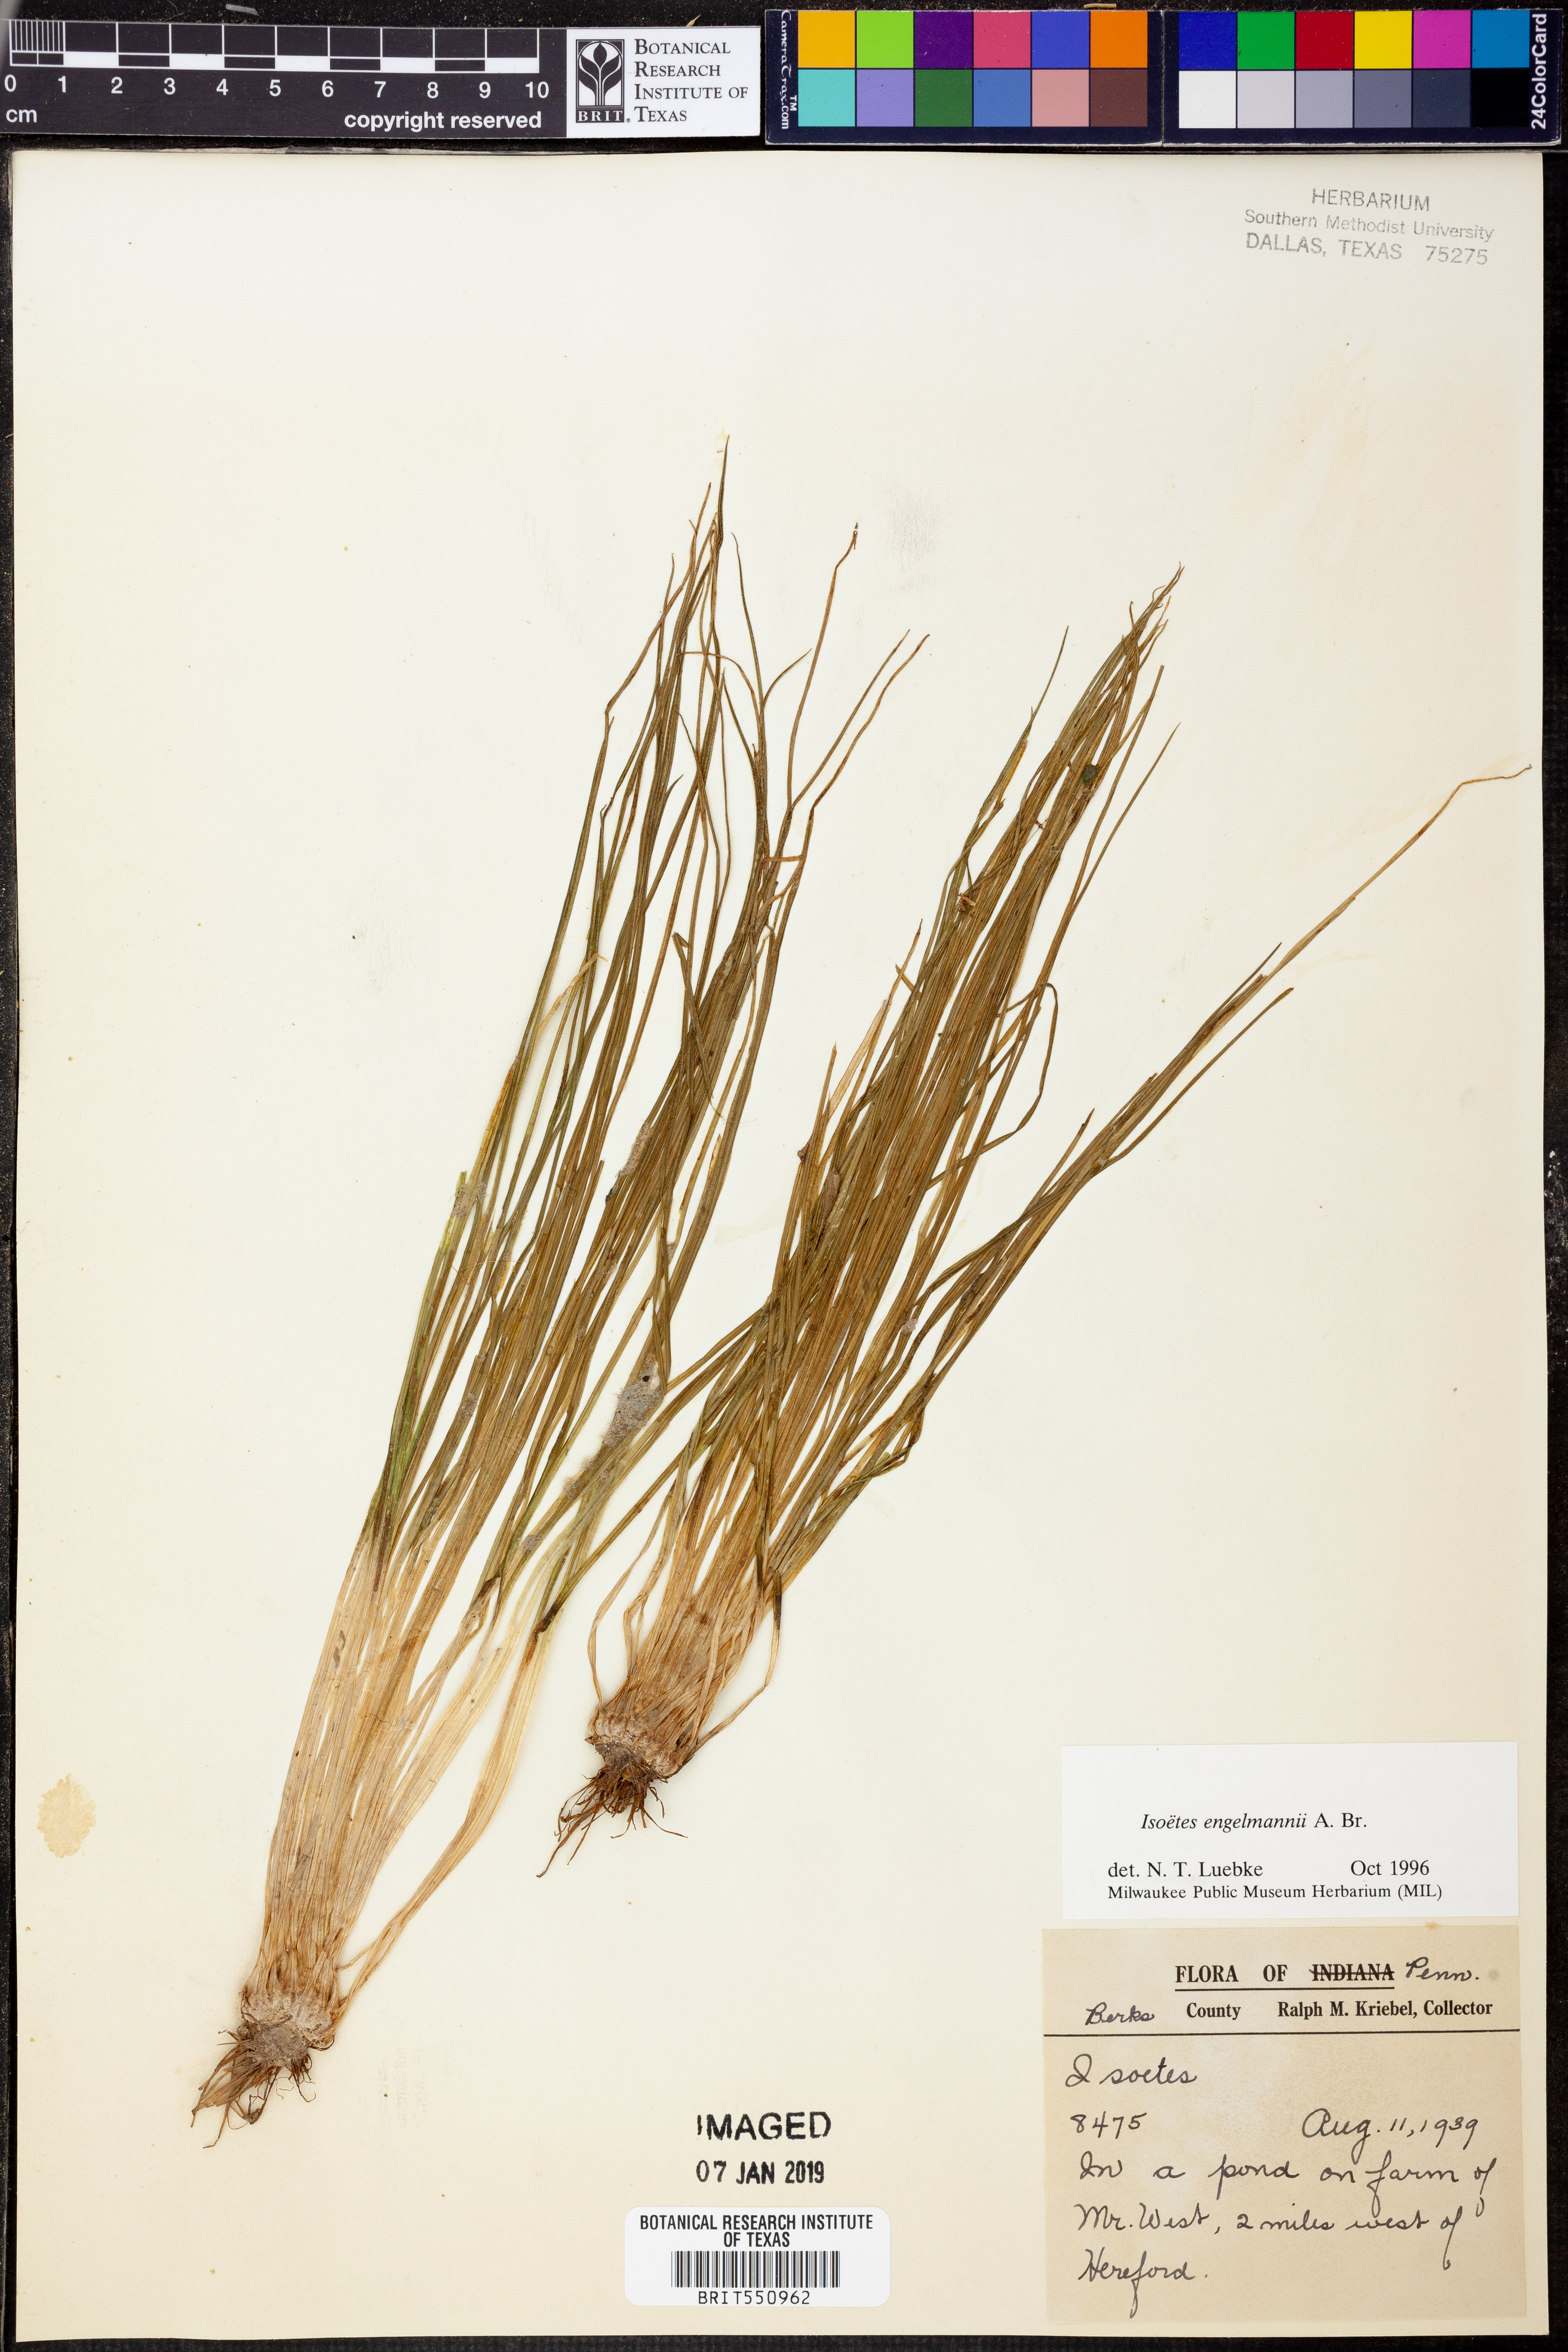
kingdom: Plantae
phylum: Tracheophyta
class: Lycopodiopsida
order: Isoetales
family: Isoetaceae
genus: Isoetes
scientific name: Isoetes engelmannii
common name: Engelmann's quillwort
